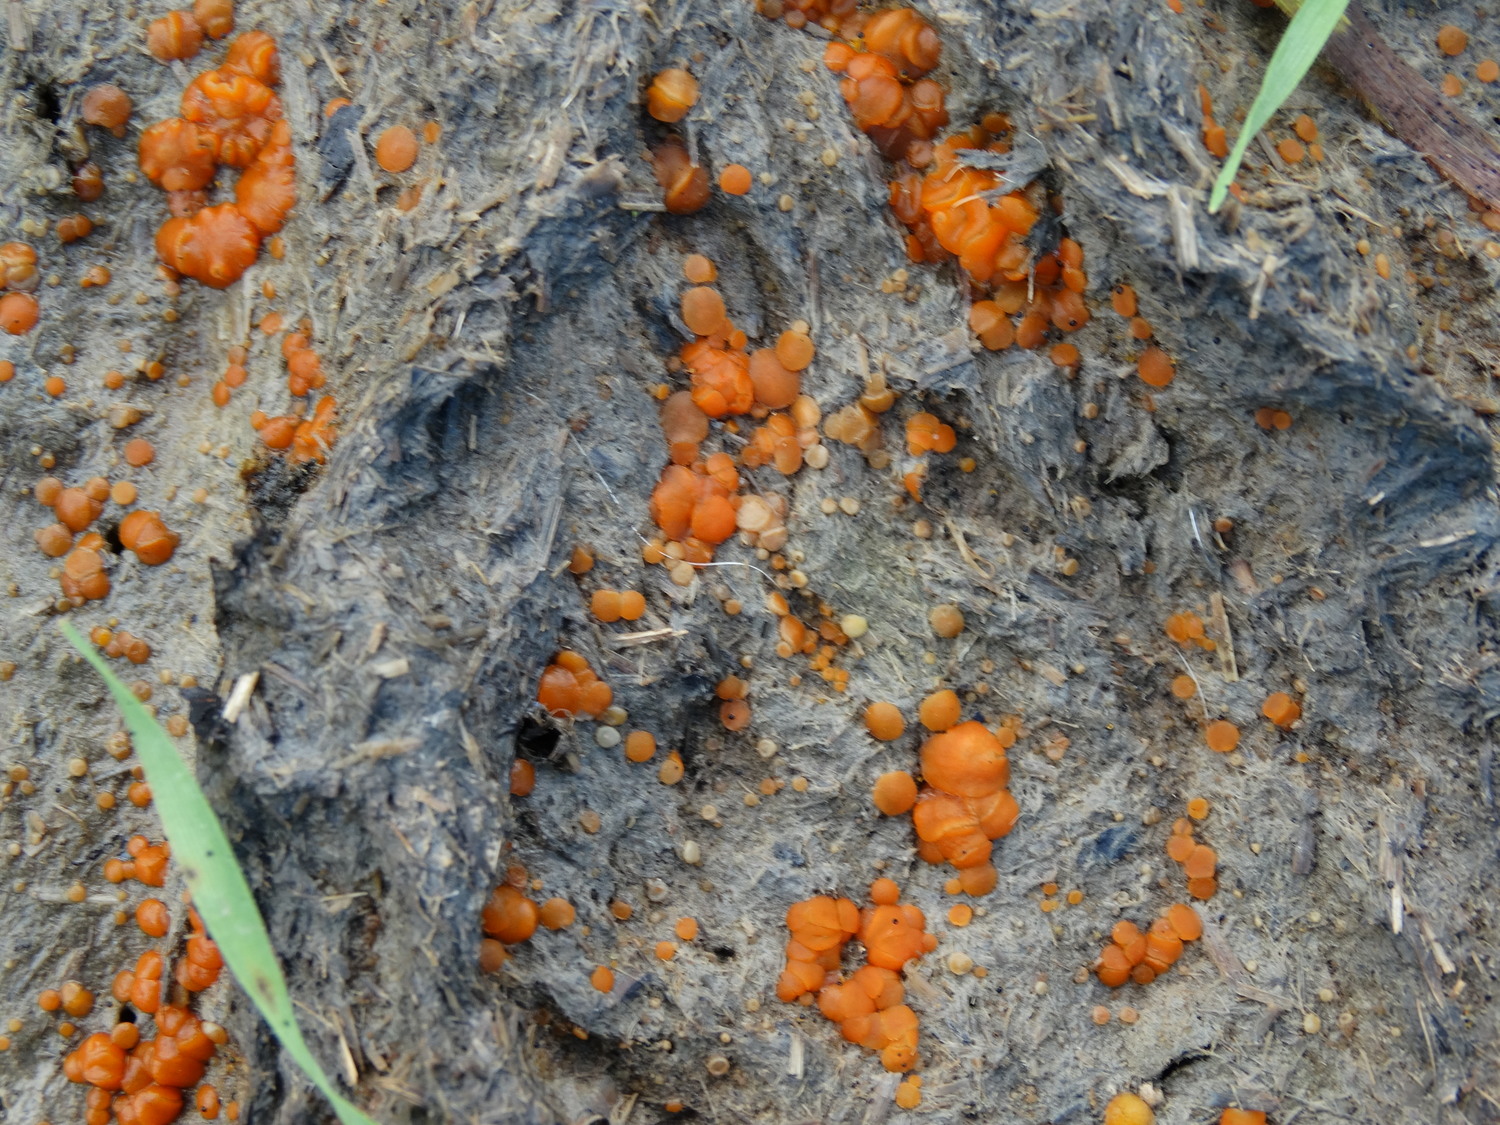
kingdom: Fungi
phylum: Ascomycota
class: Pezizomycetes
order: Pezizales
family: Pyronemataceae
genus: Cheilymenia
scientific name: Cheilymenia granulata
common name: møgbæger
